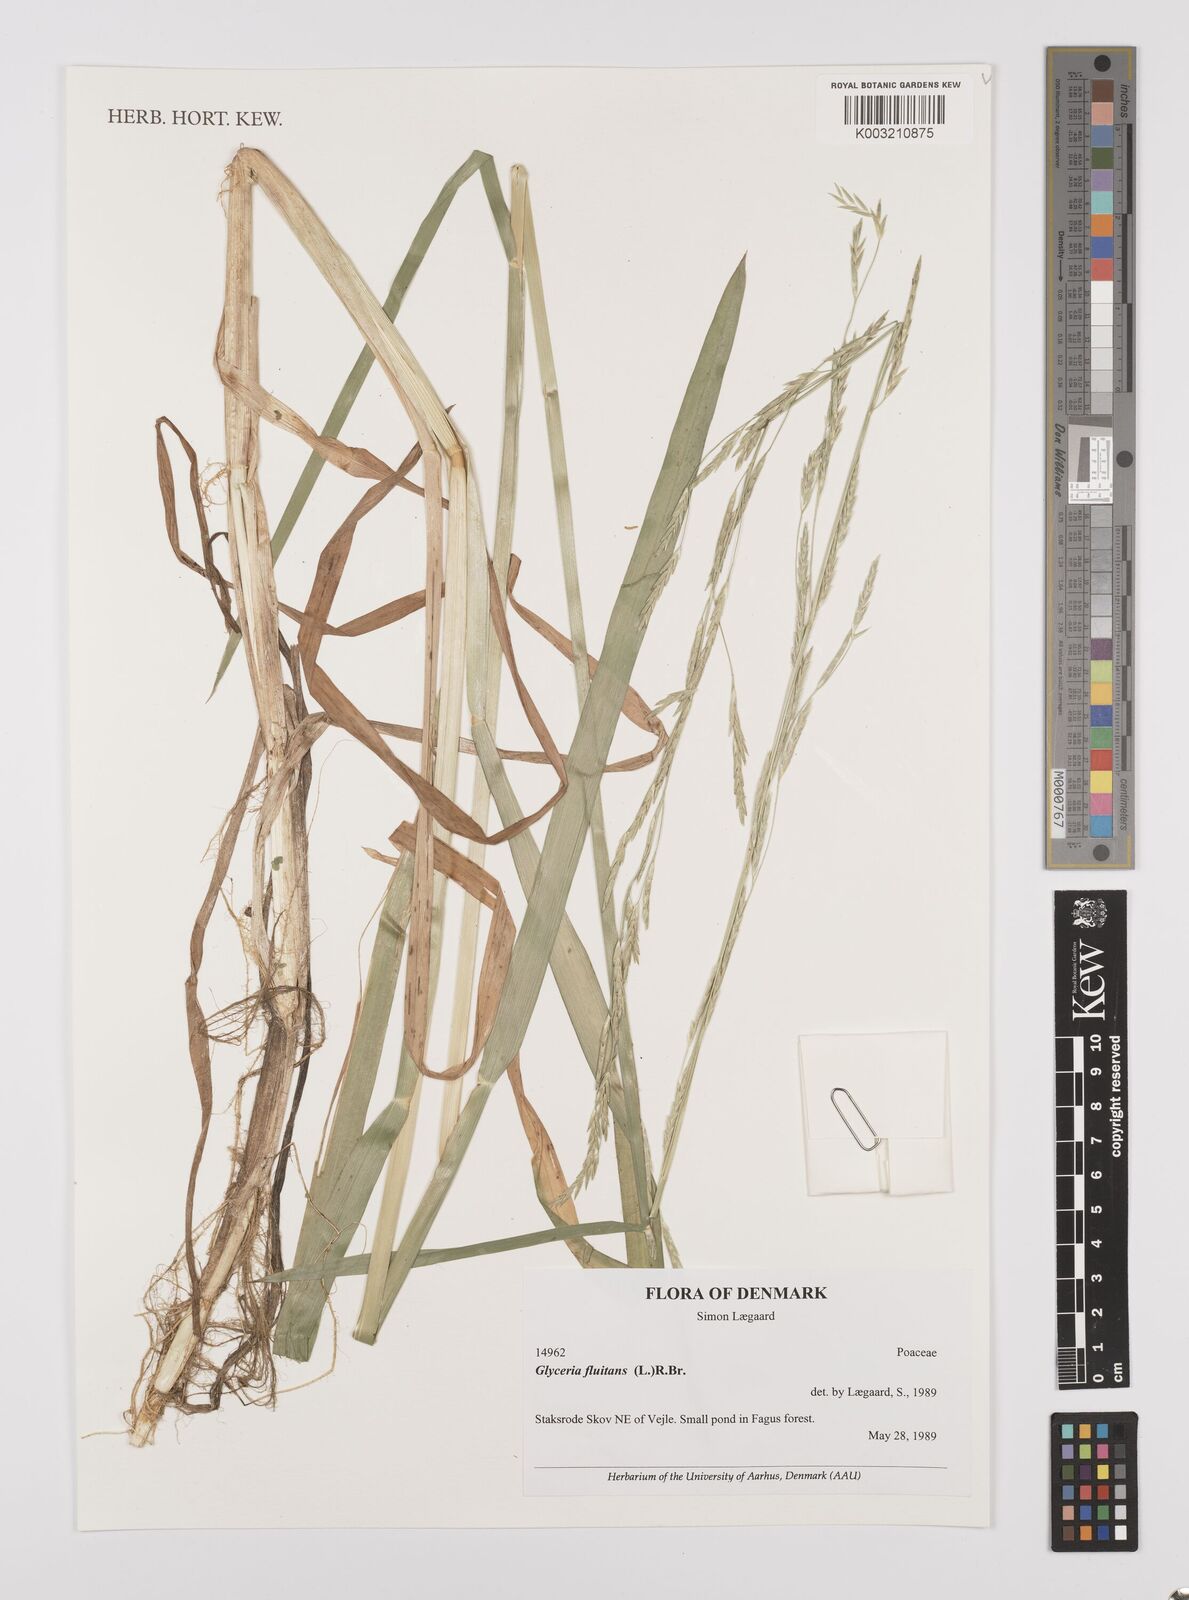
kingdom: Plantae
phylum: Tracheophyta
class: Liliopsida
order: Poales
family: Poaceae
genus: Glyceria
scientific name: Glyceria fluitans
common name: Floating sweet-grass
